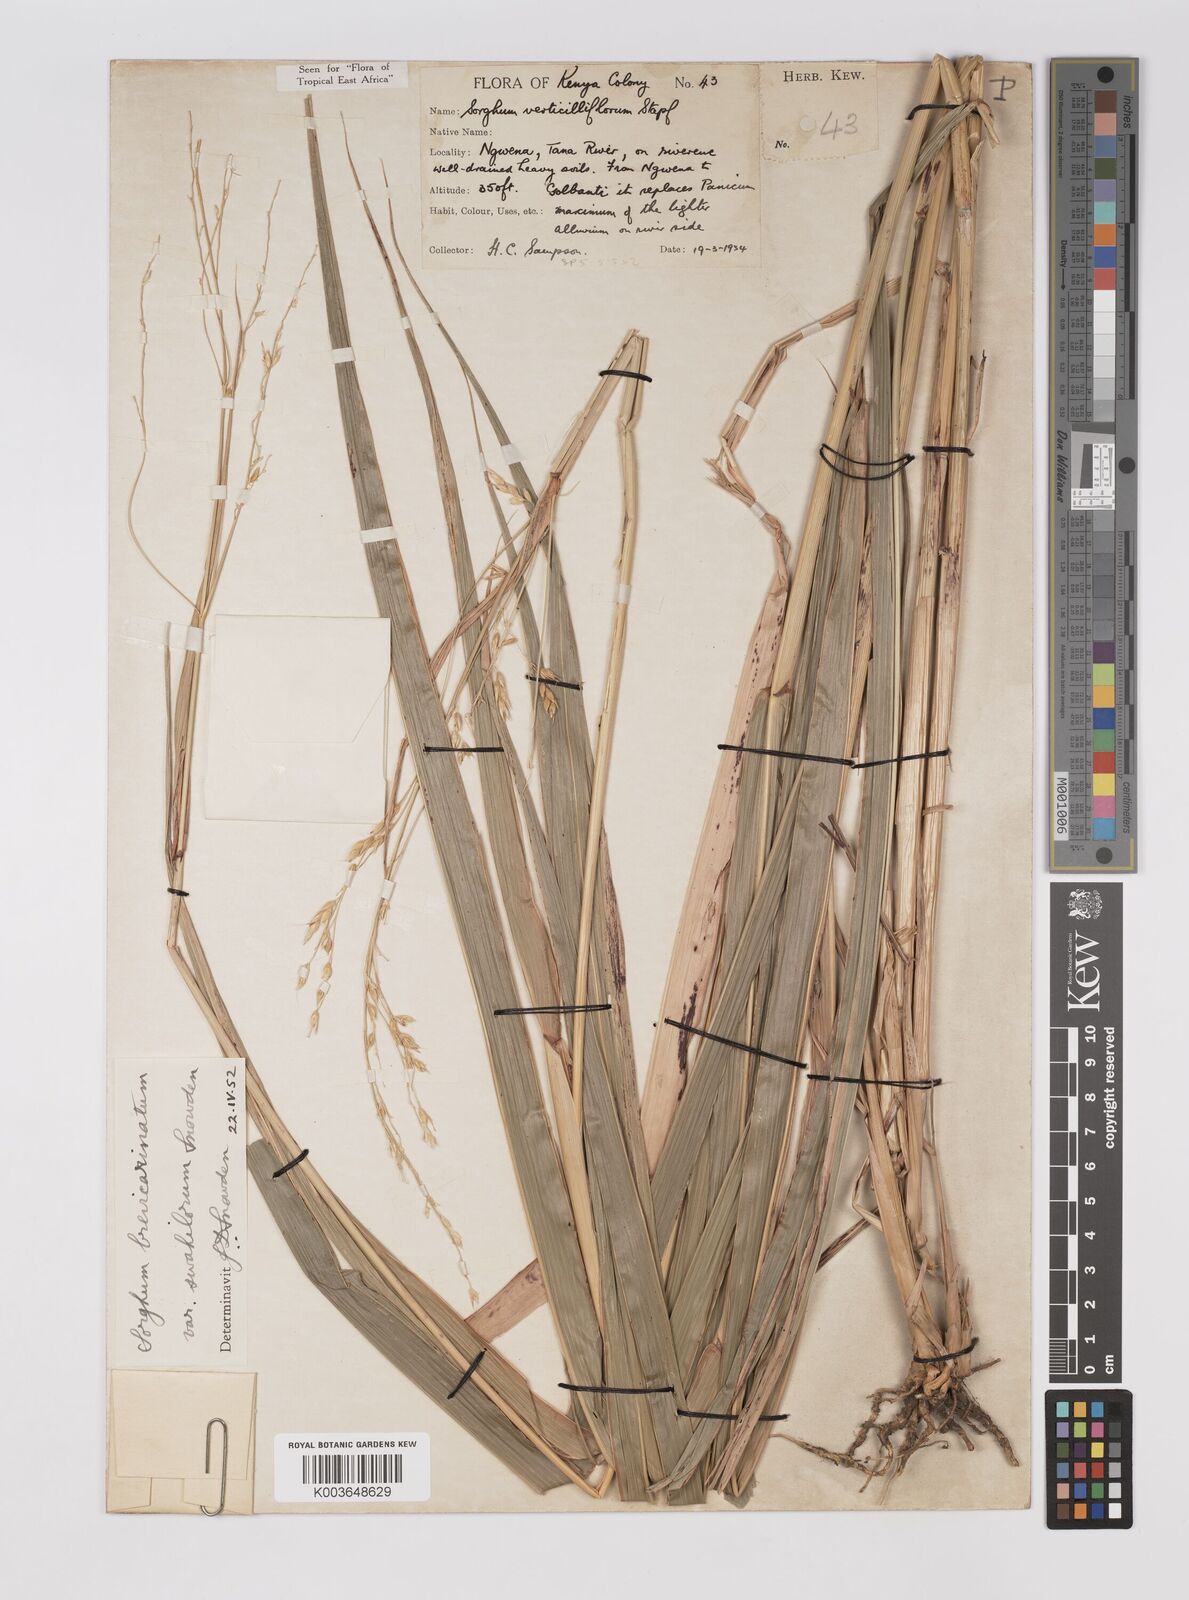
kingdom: Plantae
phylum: Tracheophyta
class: Liliopsida
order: Poales
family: Poaceae
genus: Sorghum
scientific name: Sorghum arundinaceum
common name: Sorghum
